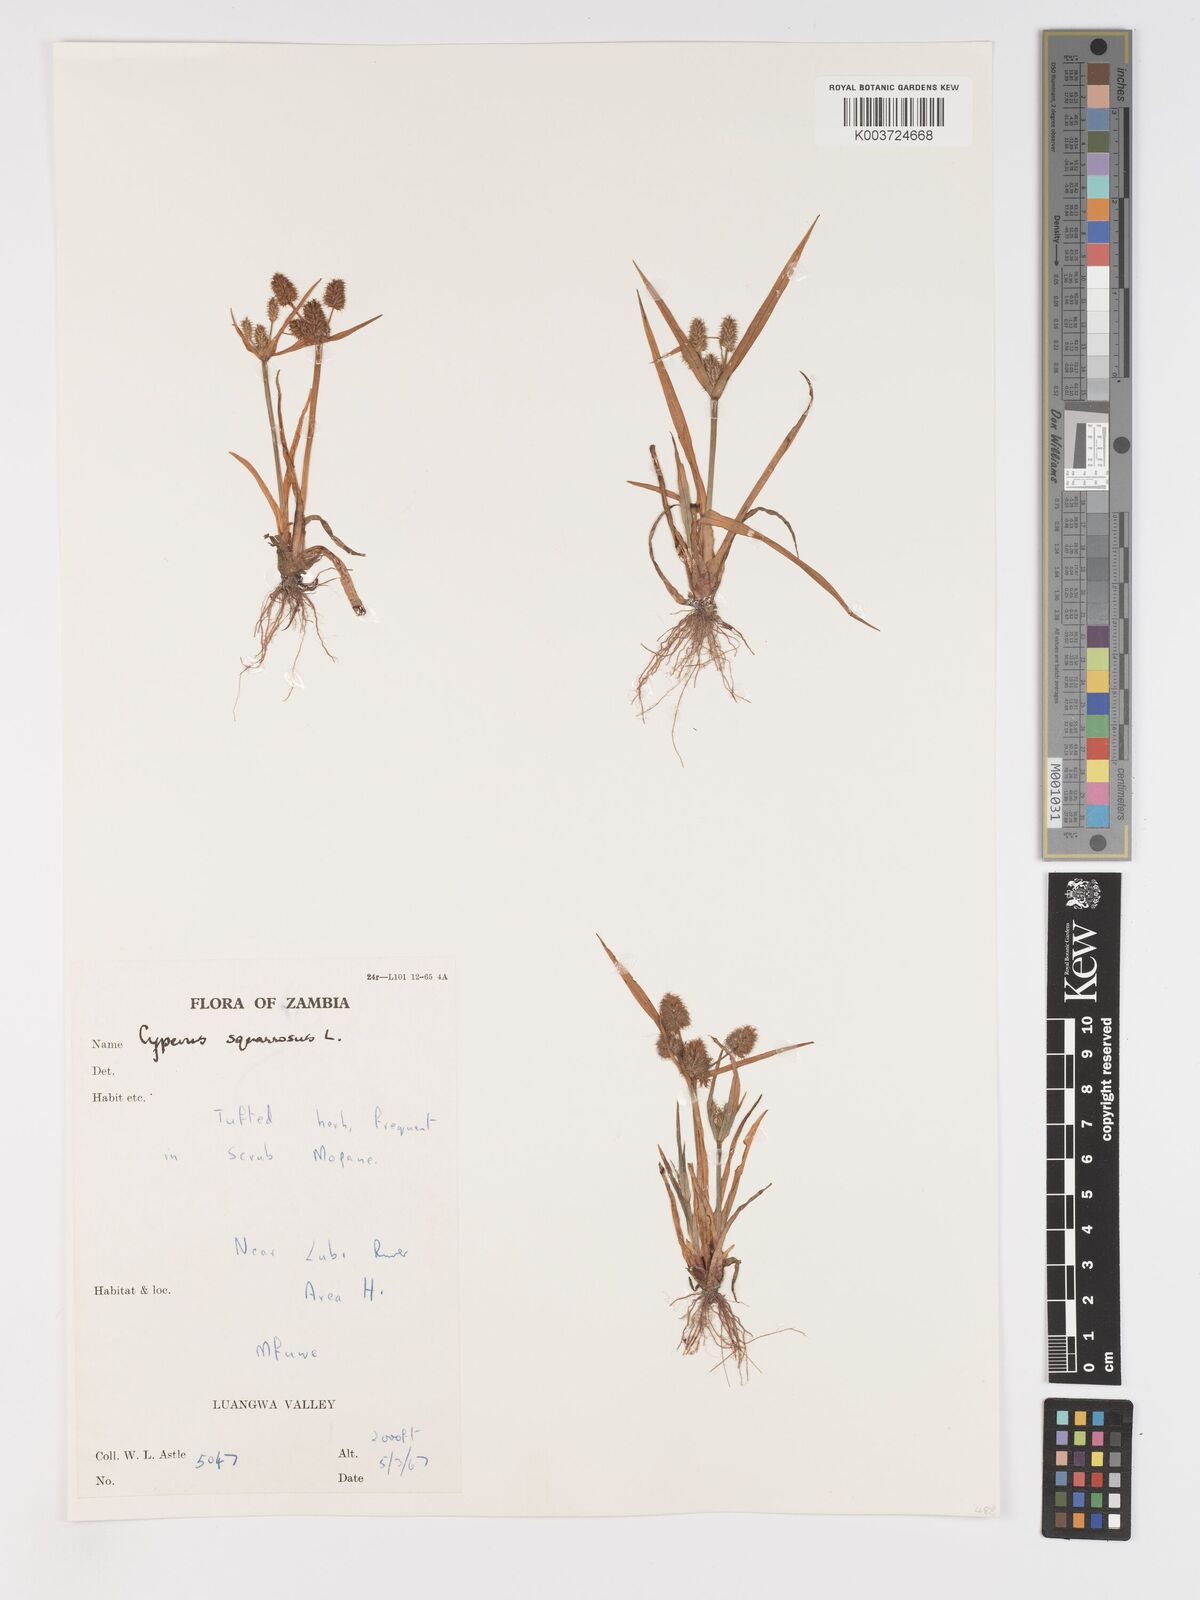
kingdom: Plantae
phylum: Tracheophyta
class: Liliopsida
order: Poales
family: Cyperaceae
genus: Cyperus
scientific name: Cyperus squarrosus
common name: Awned cyperus
